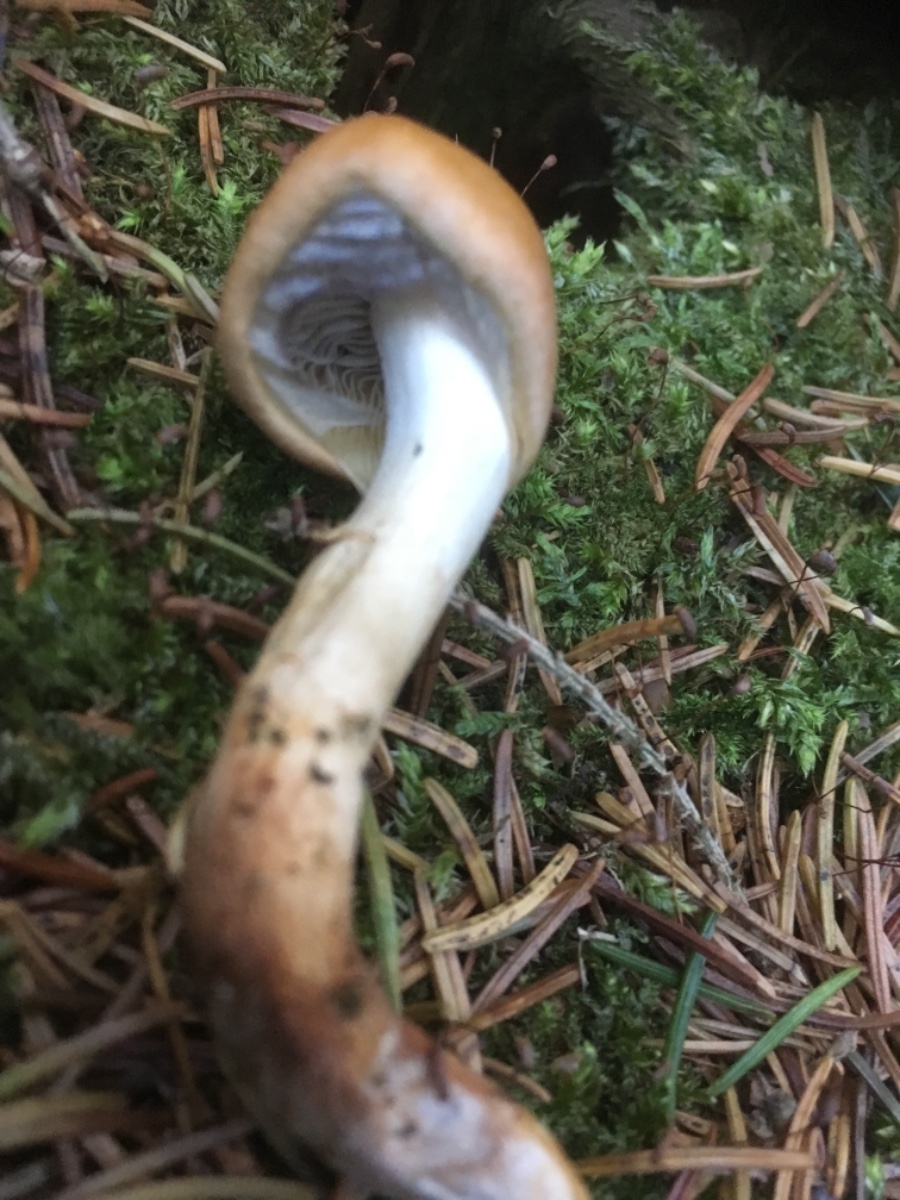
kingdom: Fungi
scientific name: Fungi
